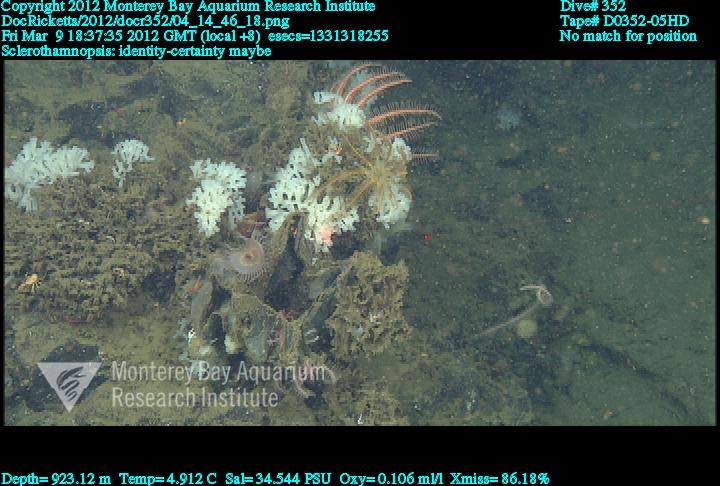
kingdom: Animalia
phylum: Porifera
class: Hexactinellida
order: Sceptrulophora
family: Tretodictyidae
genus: Sclerothamnopsis
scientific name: Sclerothamnopsis
